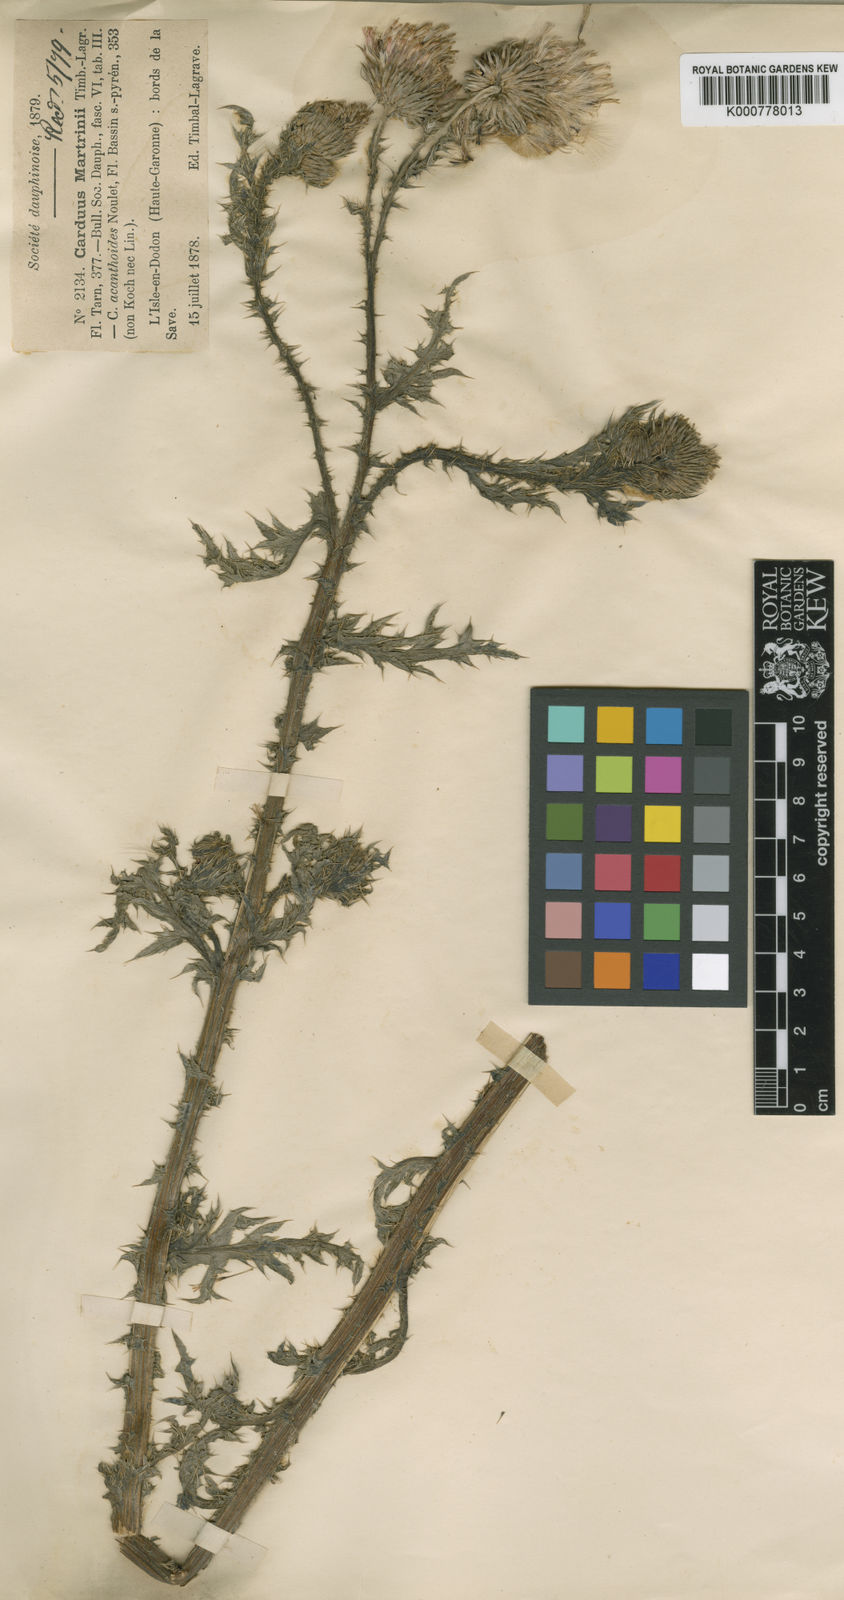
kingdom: Plantae
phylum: Tracheophyta
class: Magnoliopsida
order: Asterales
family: Asteraceae
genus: Carduus
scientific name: Carduus nigrescens
